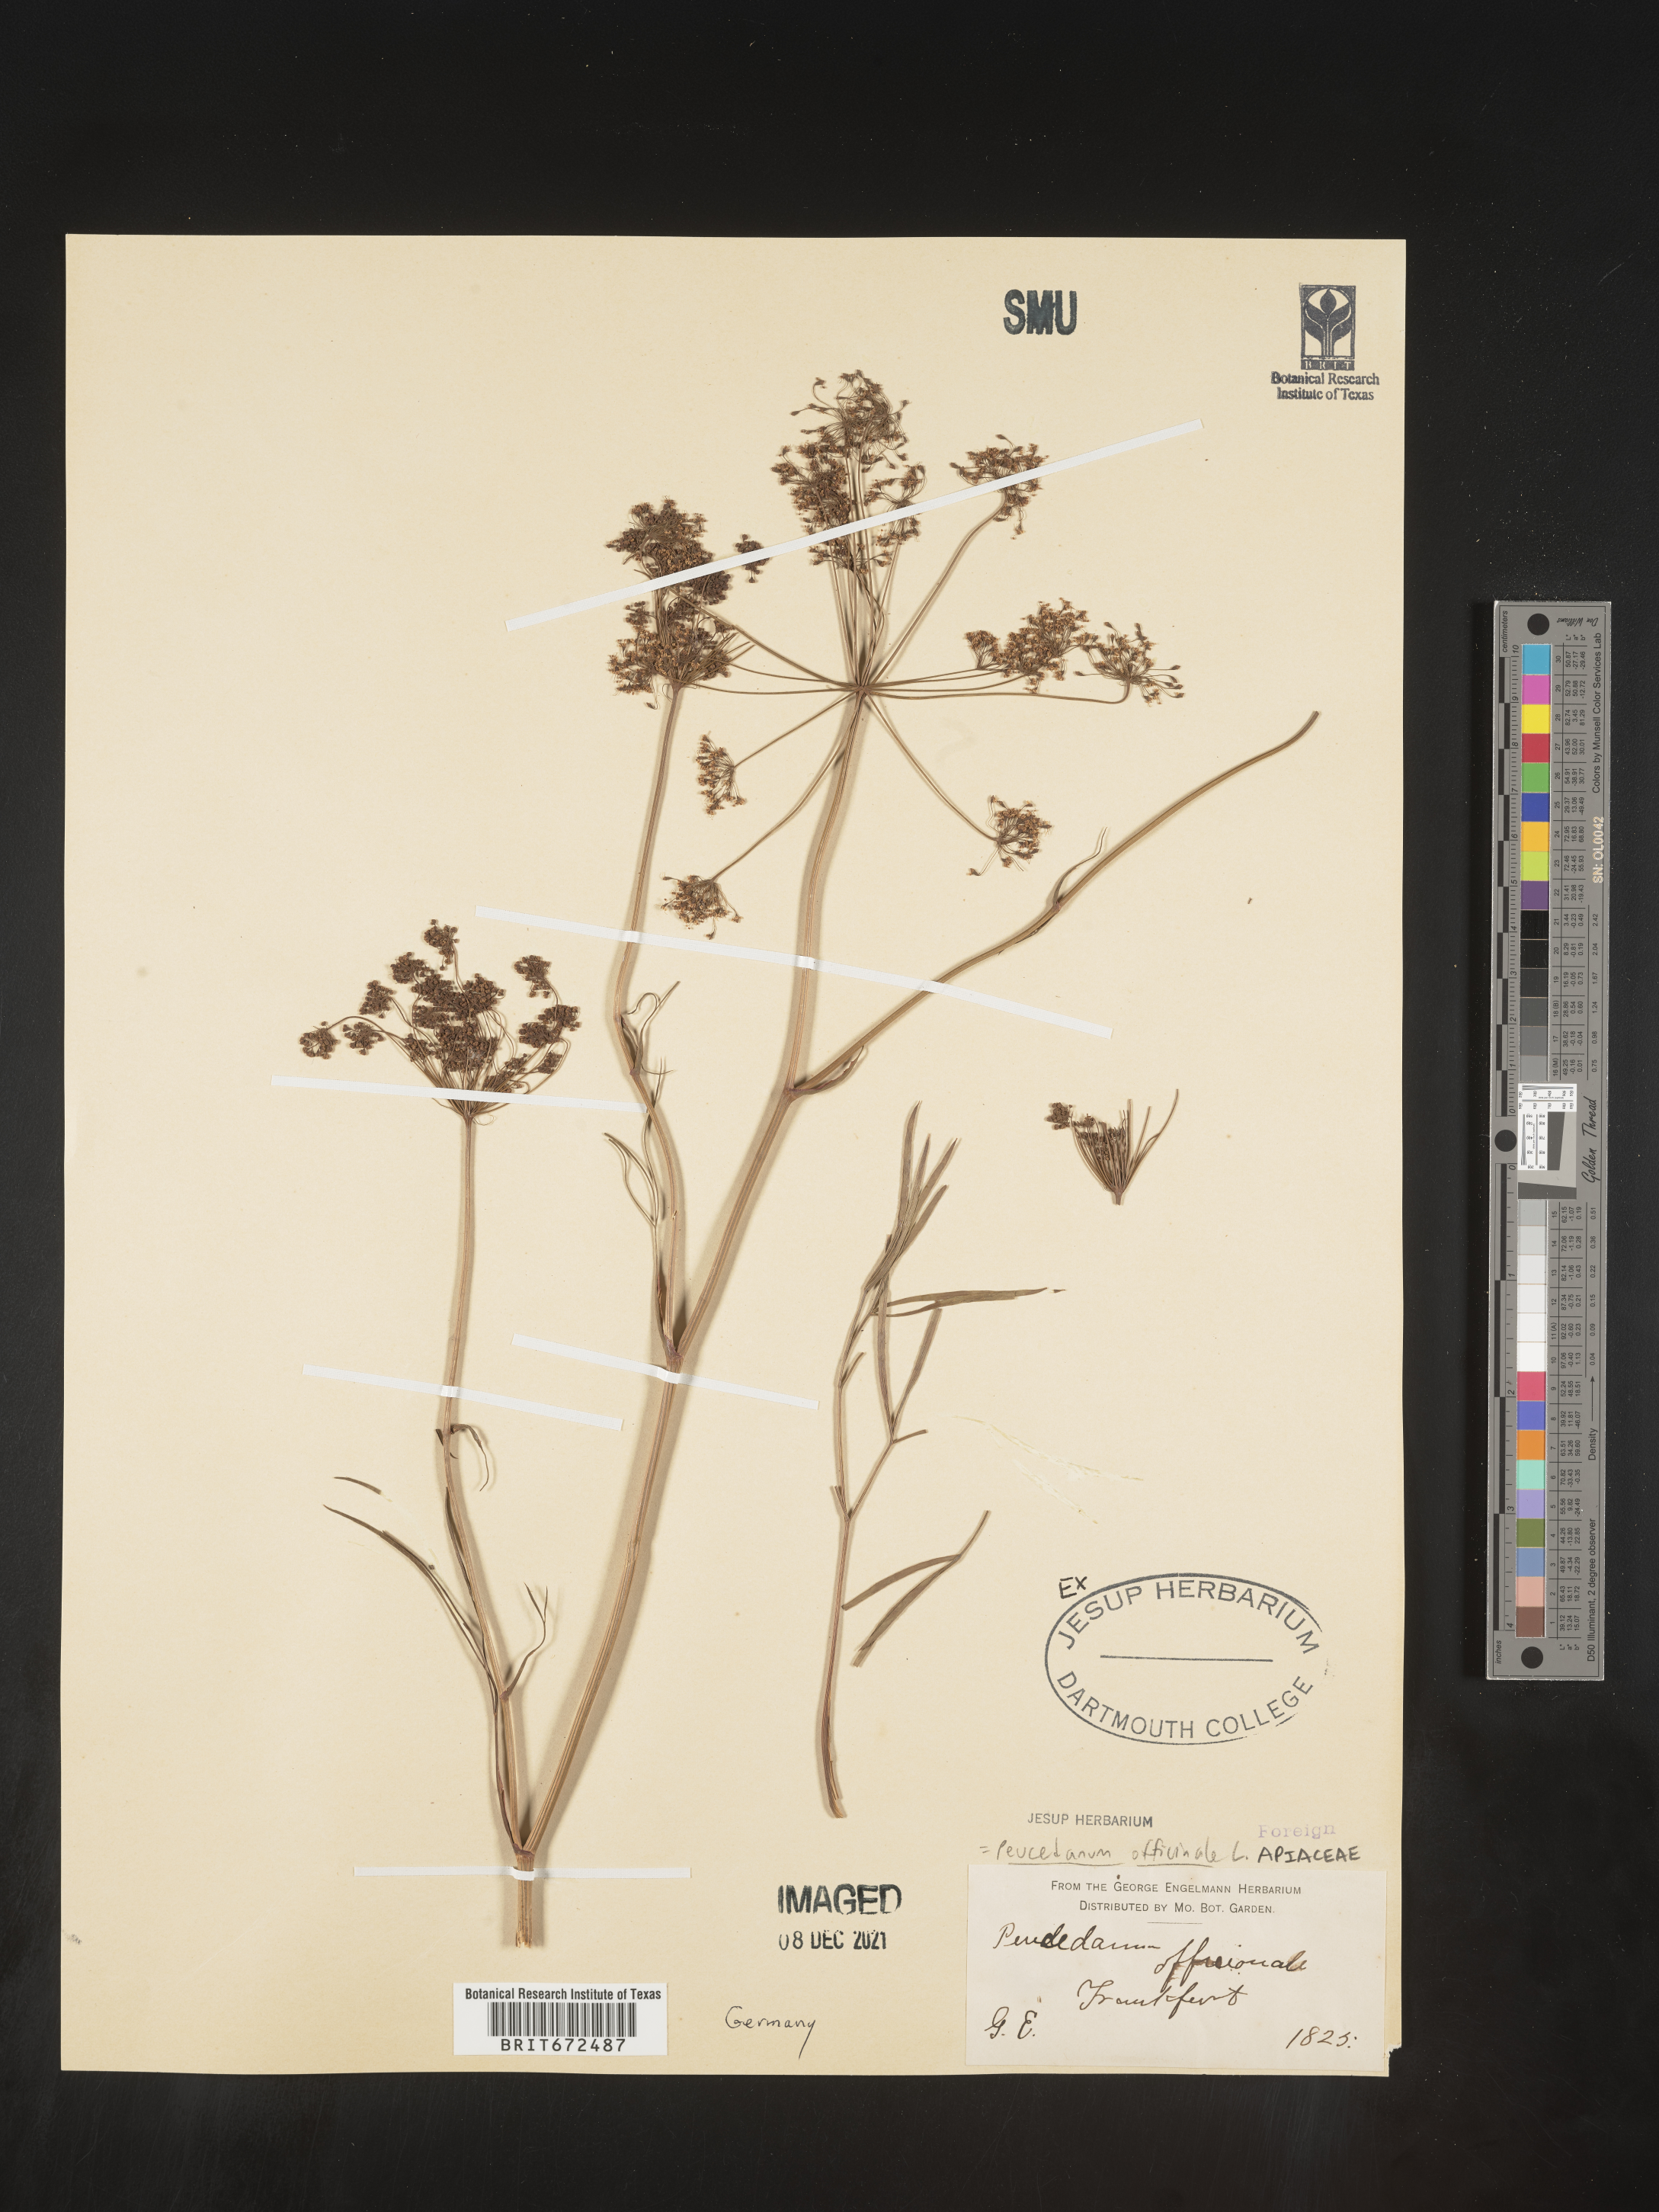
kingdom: Plantae
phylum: Tracheophyta
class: Magnoliopsida
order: Apiales
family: Apiaceae
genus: Peucedanum
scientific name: Peucedanum
